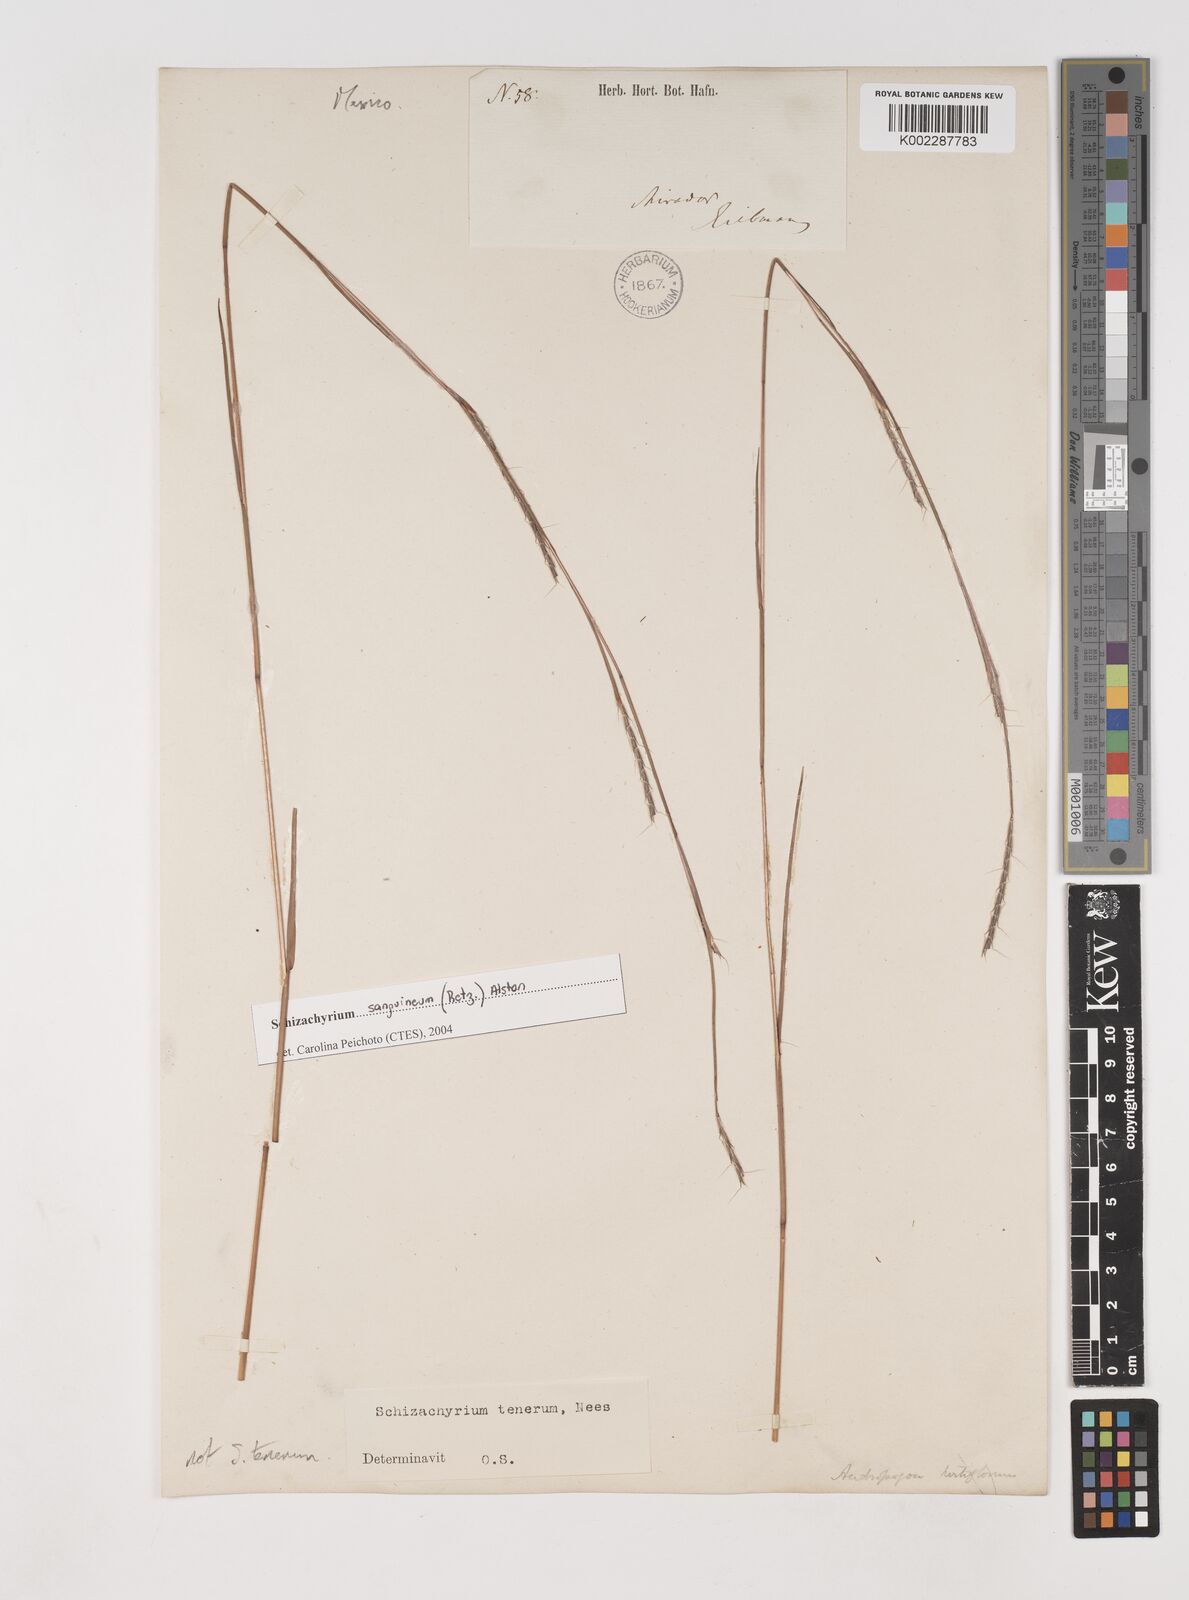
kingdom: Plantae
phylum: Tracheophyta
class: Liliopsida
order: Poales
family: Poaceae
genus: Andropogon
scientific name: Andropogon tener
